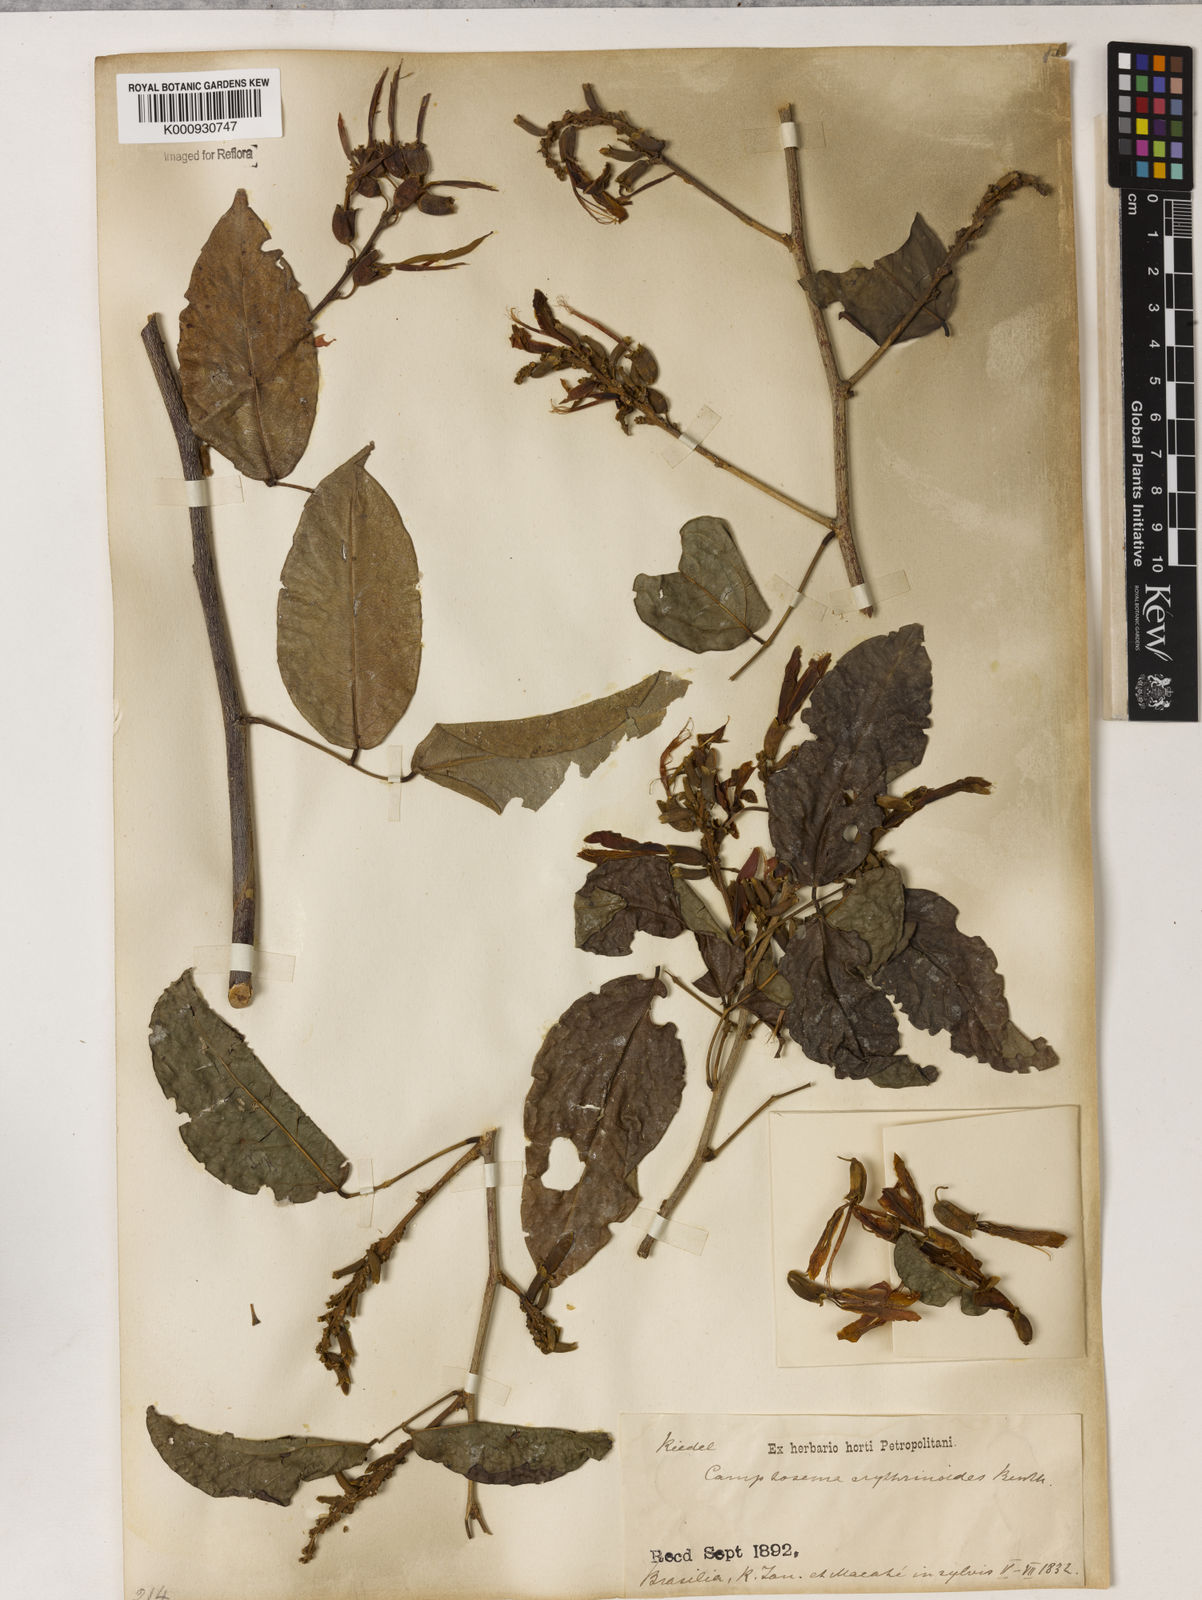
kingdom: Plantae
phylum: Tracheophyta
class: Magnoliopsida
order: Fabales
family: Fabaceae
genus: Cratylia
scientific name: Cratylia isopetala
